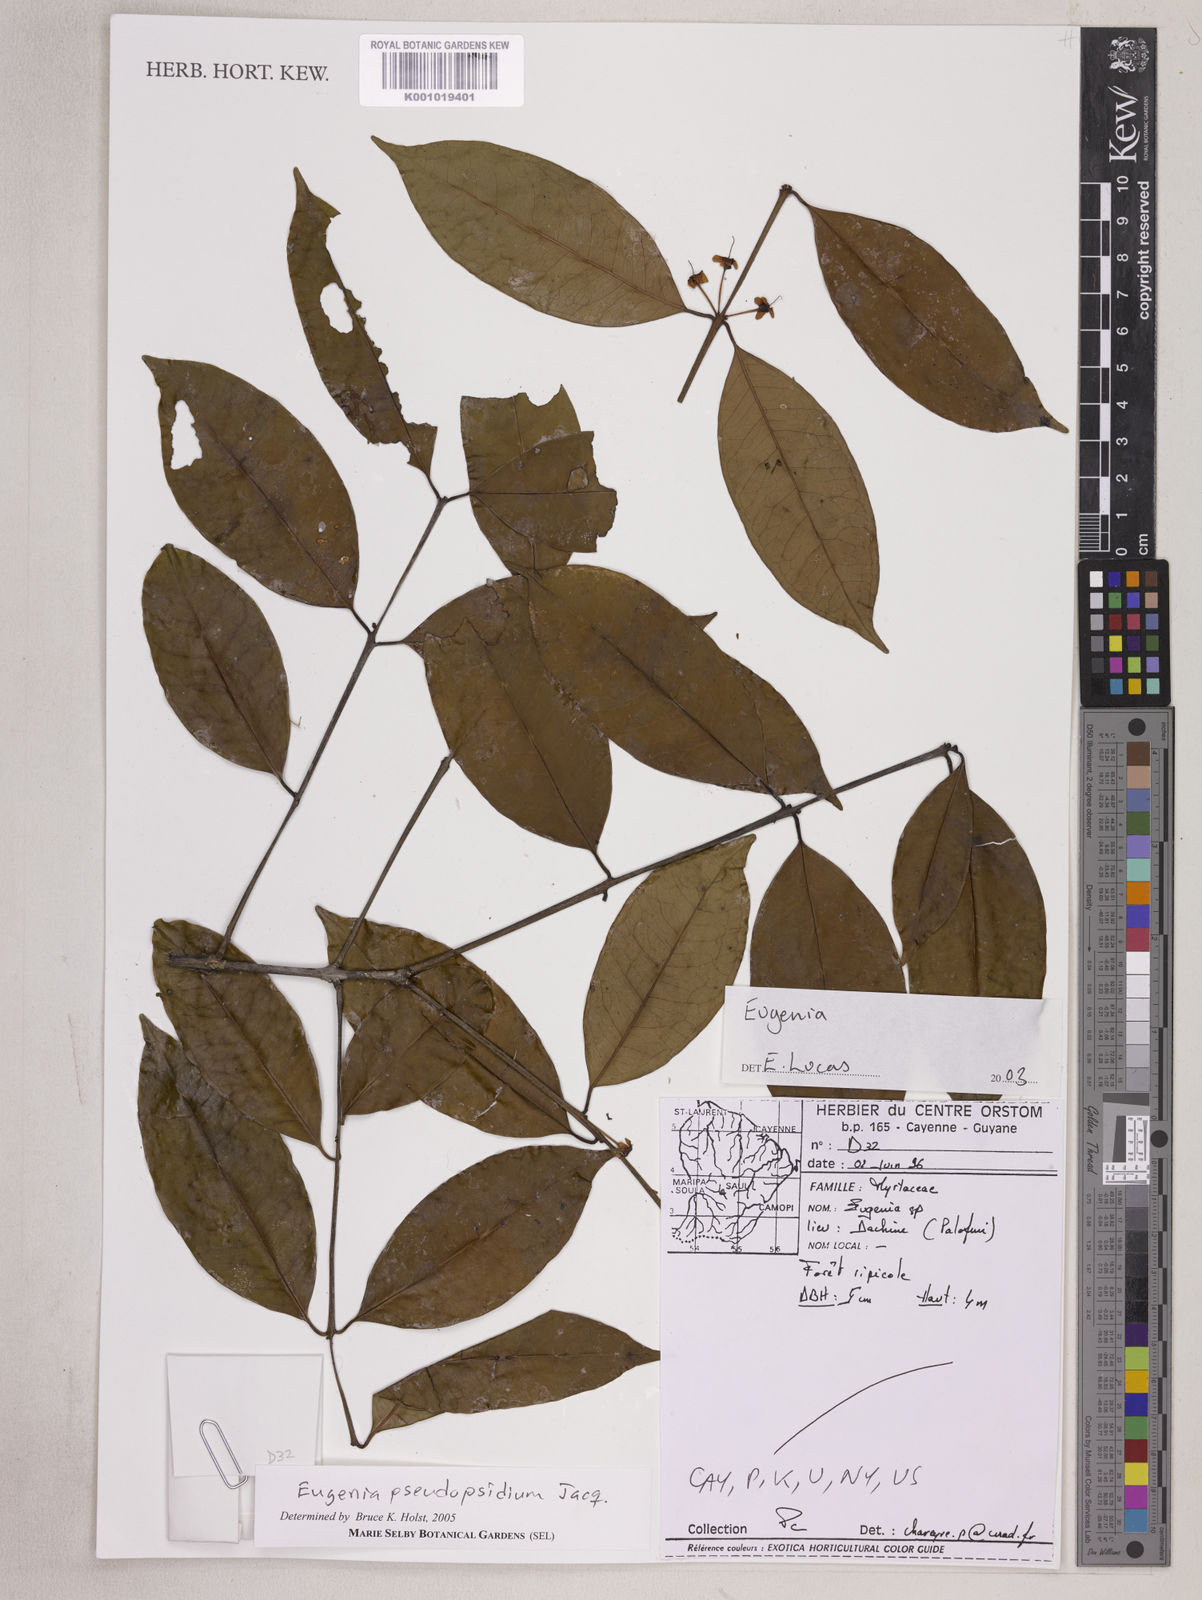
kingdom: Plantae
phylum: Tracheophyta
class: Magnoliopsida
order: Myrtales
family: Myrtaceae
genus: Eugenia
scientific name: Eugenia pseudopsidium
